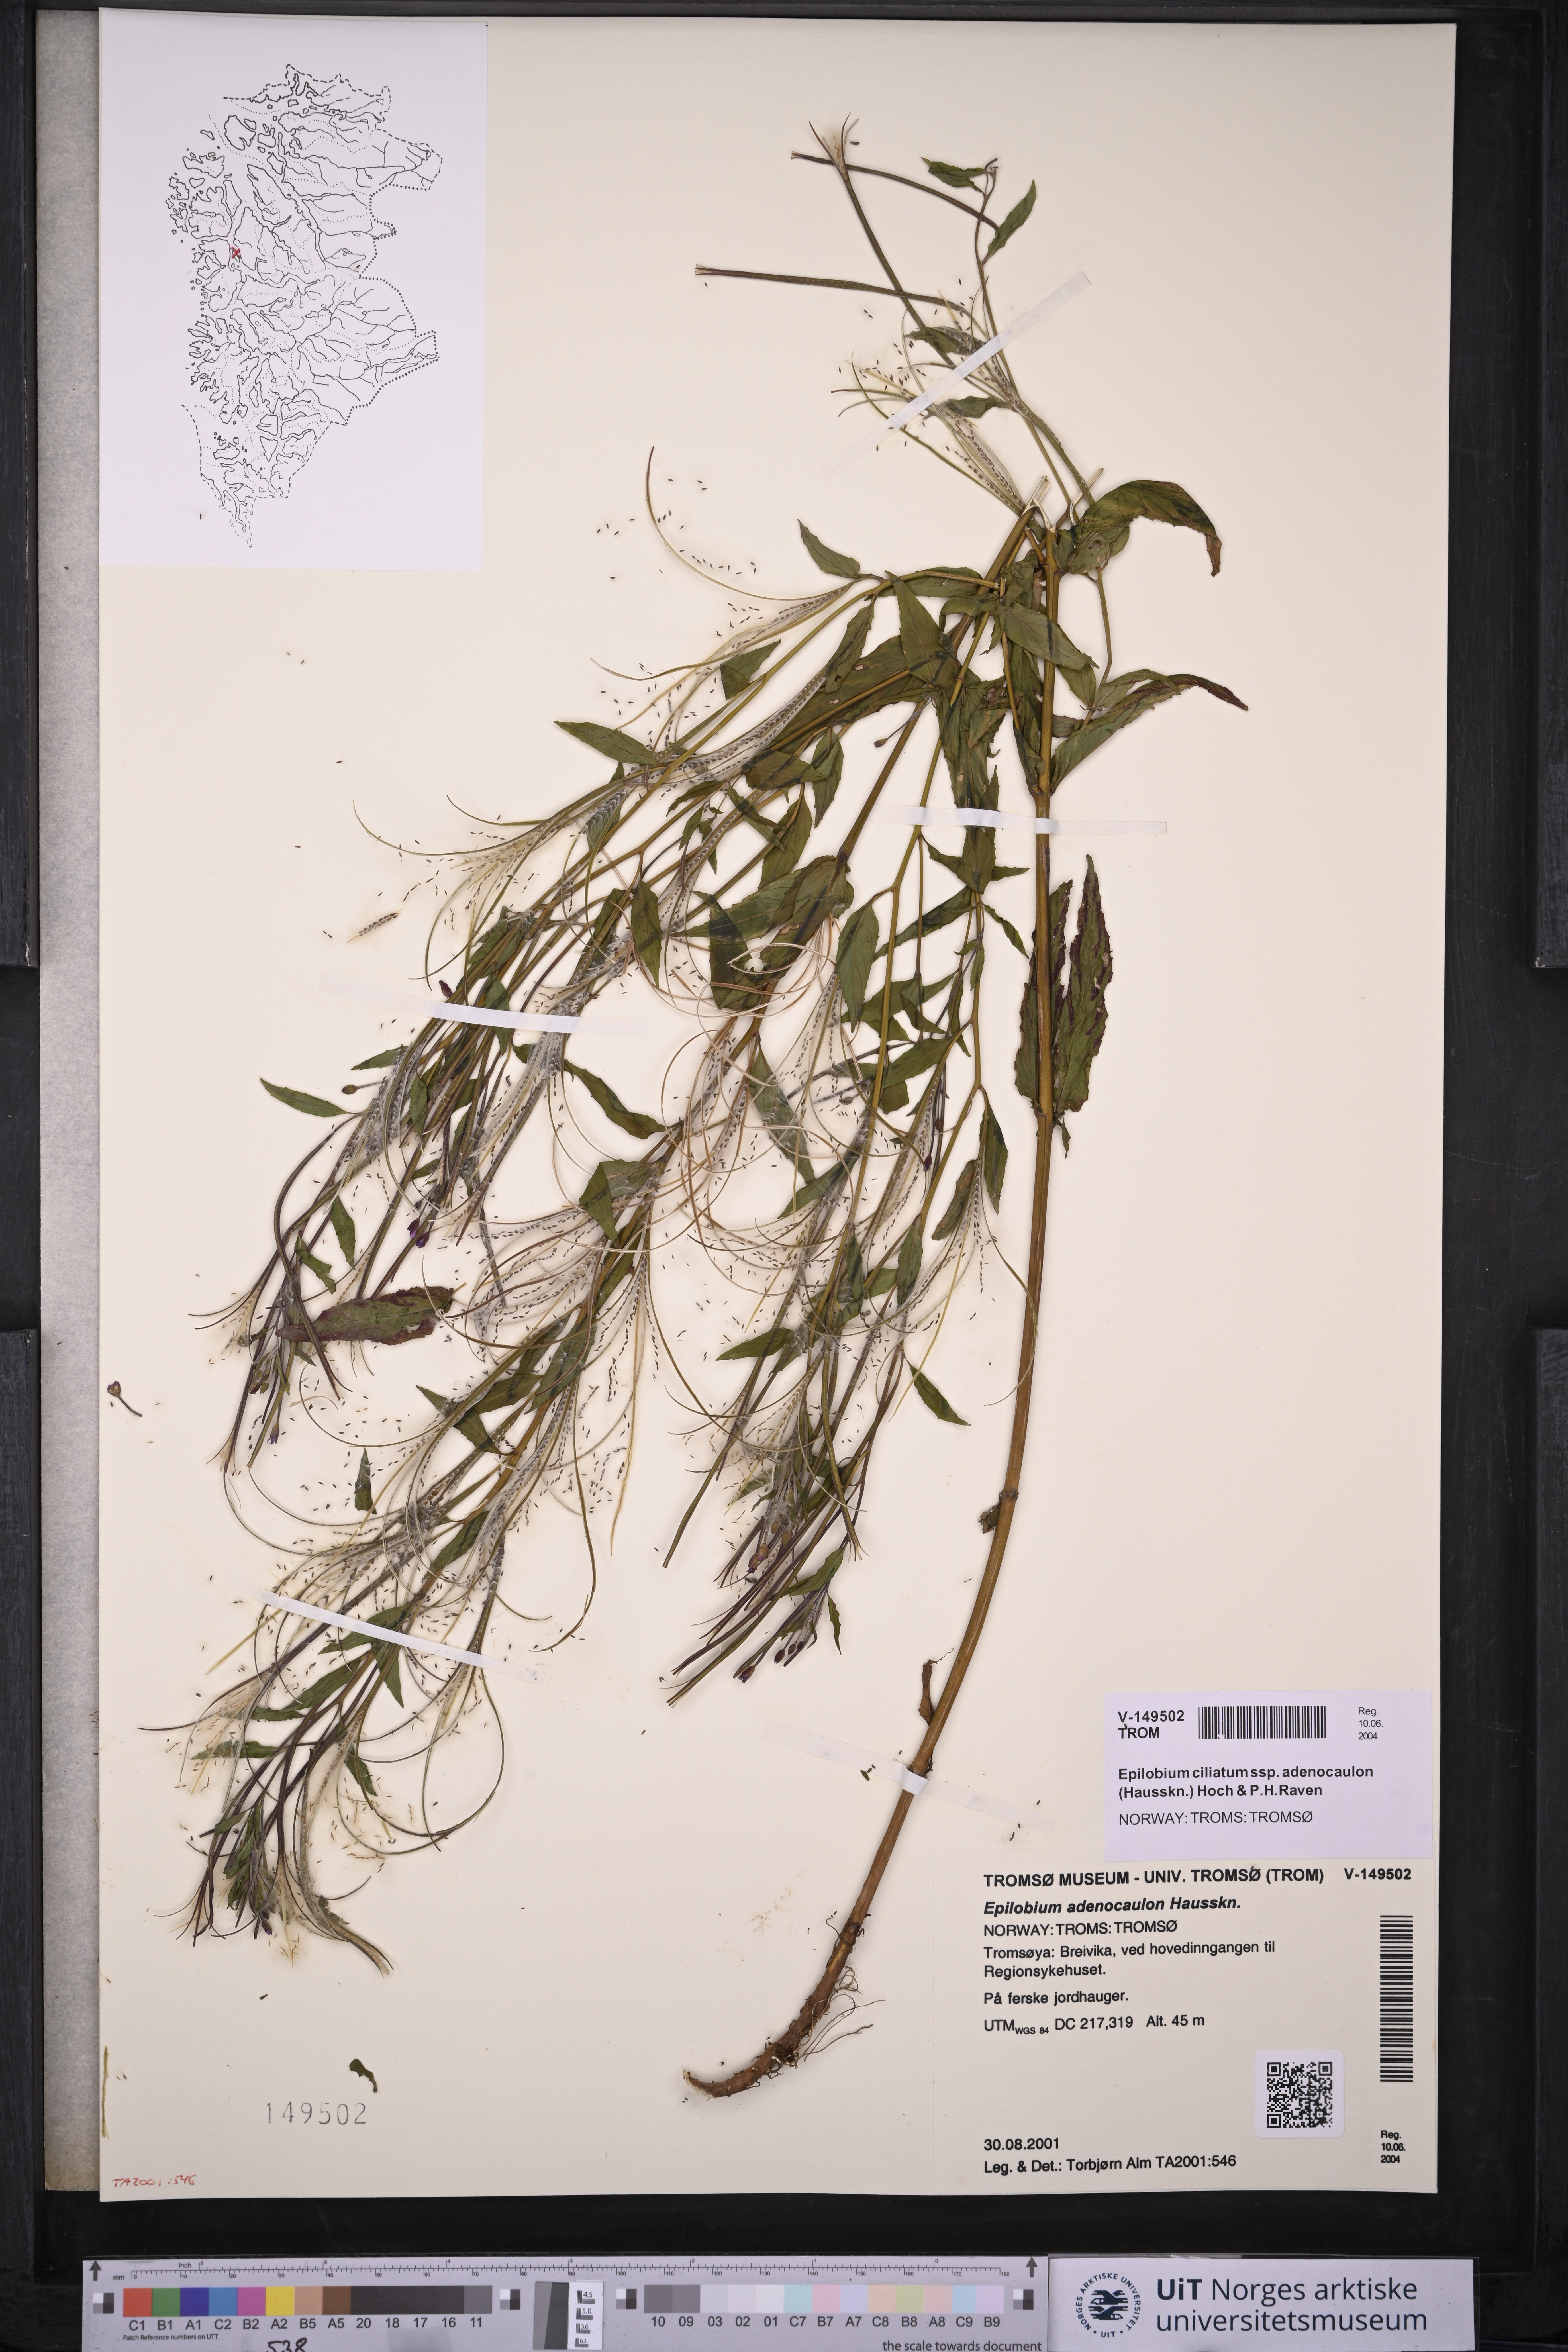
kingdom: Plantae
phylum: Tracheophyta
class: Magnoliopsida
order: Myrtales
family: Onagraceae
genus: Epilobium
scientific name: Epilobium ciliatum
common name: American willowherb
